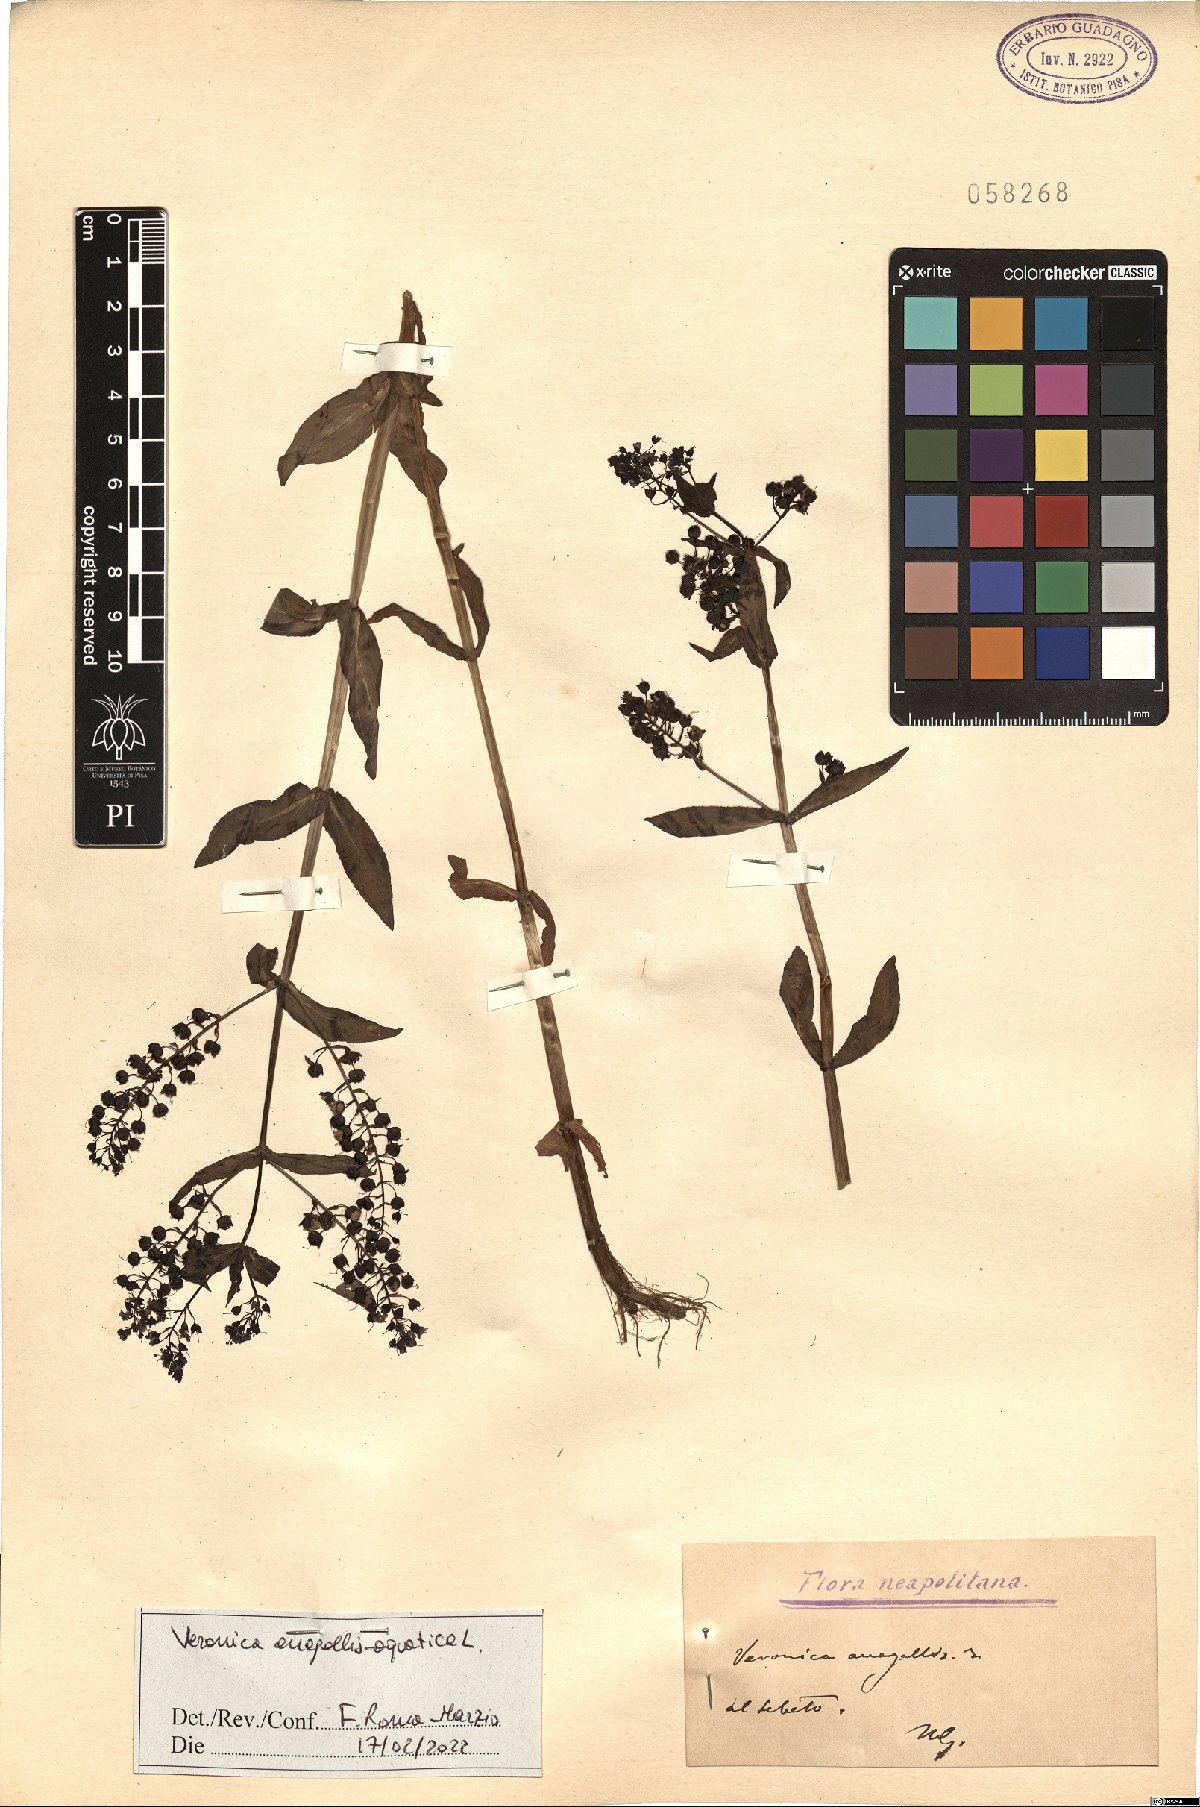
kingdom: Plantae
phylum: Tracheophyta
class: Magnoliopsida
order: Lamiales
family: Plantaginaceae
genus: Veronica
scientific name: Veronica anagallis-aquatica
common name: Water speedwell
